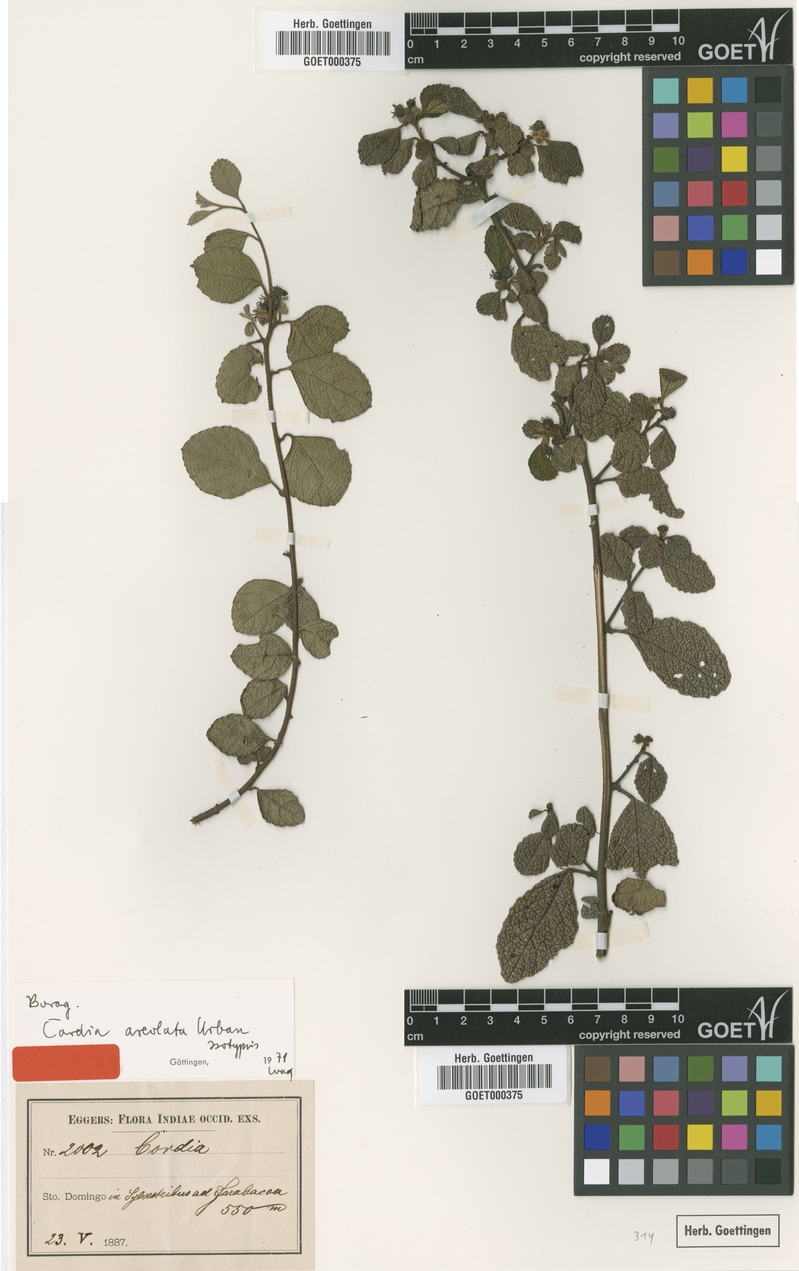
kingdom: Plantae
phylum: Tracheophyta
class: Magnoliopsida
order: Boraginales
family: Cordiaceae
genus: Varronia
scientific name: Varronia areolata
